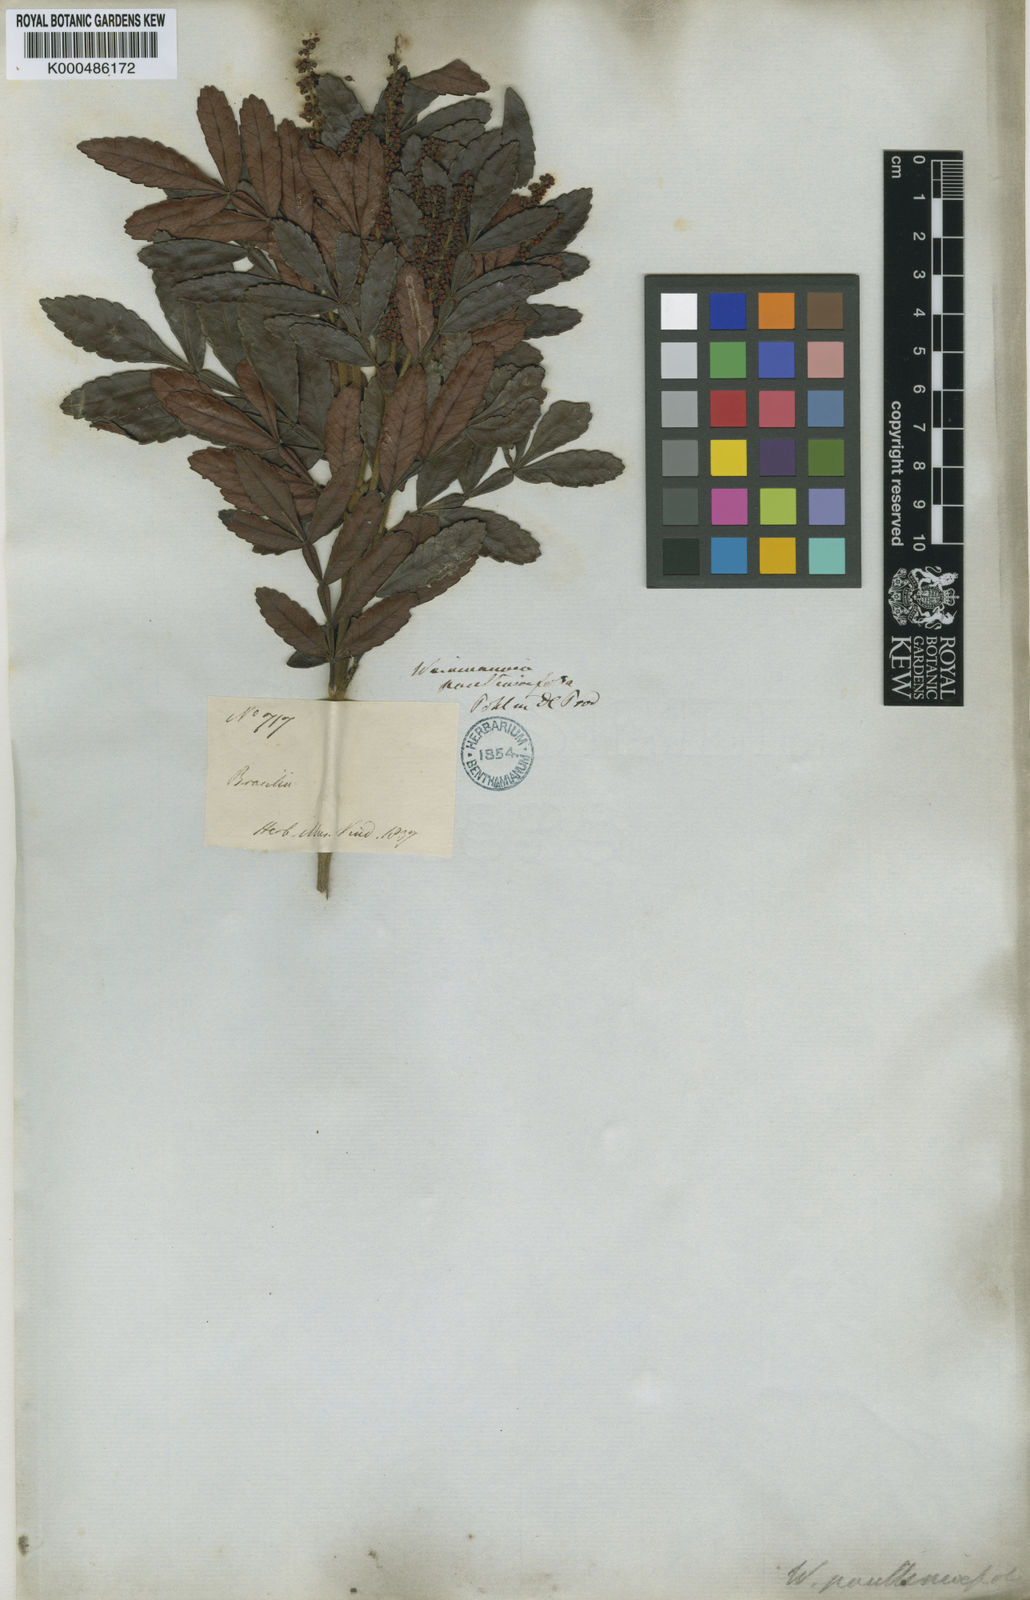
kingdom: Plantae
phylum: Tracheophyta
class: Magnoliopsida
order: Oxalidales
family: Cunoniaceae
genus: Weinmannia
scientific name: Weinmannia
